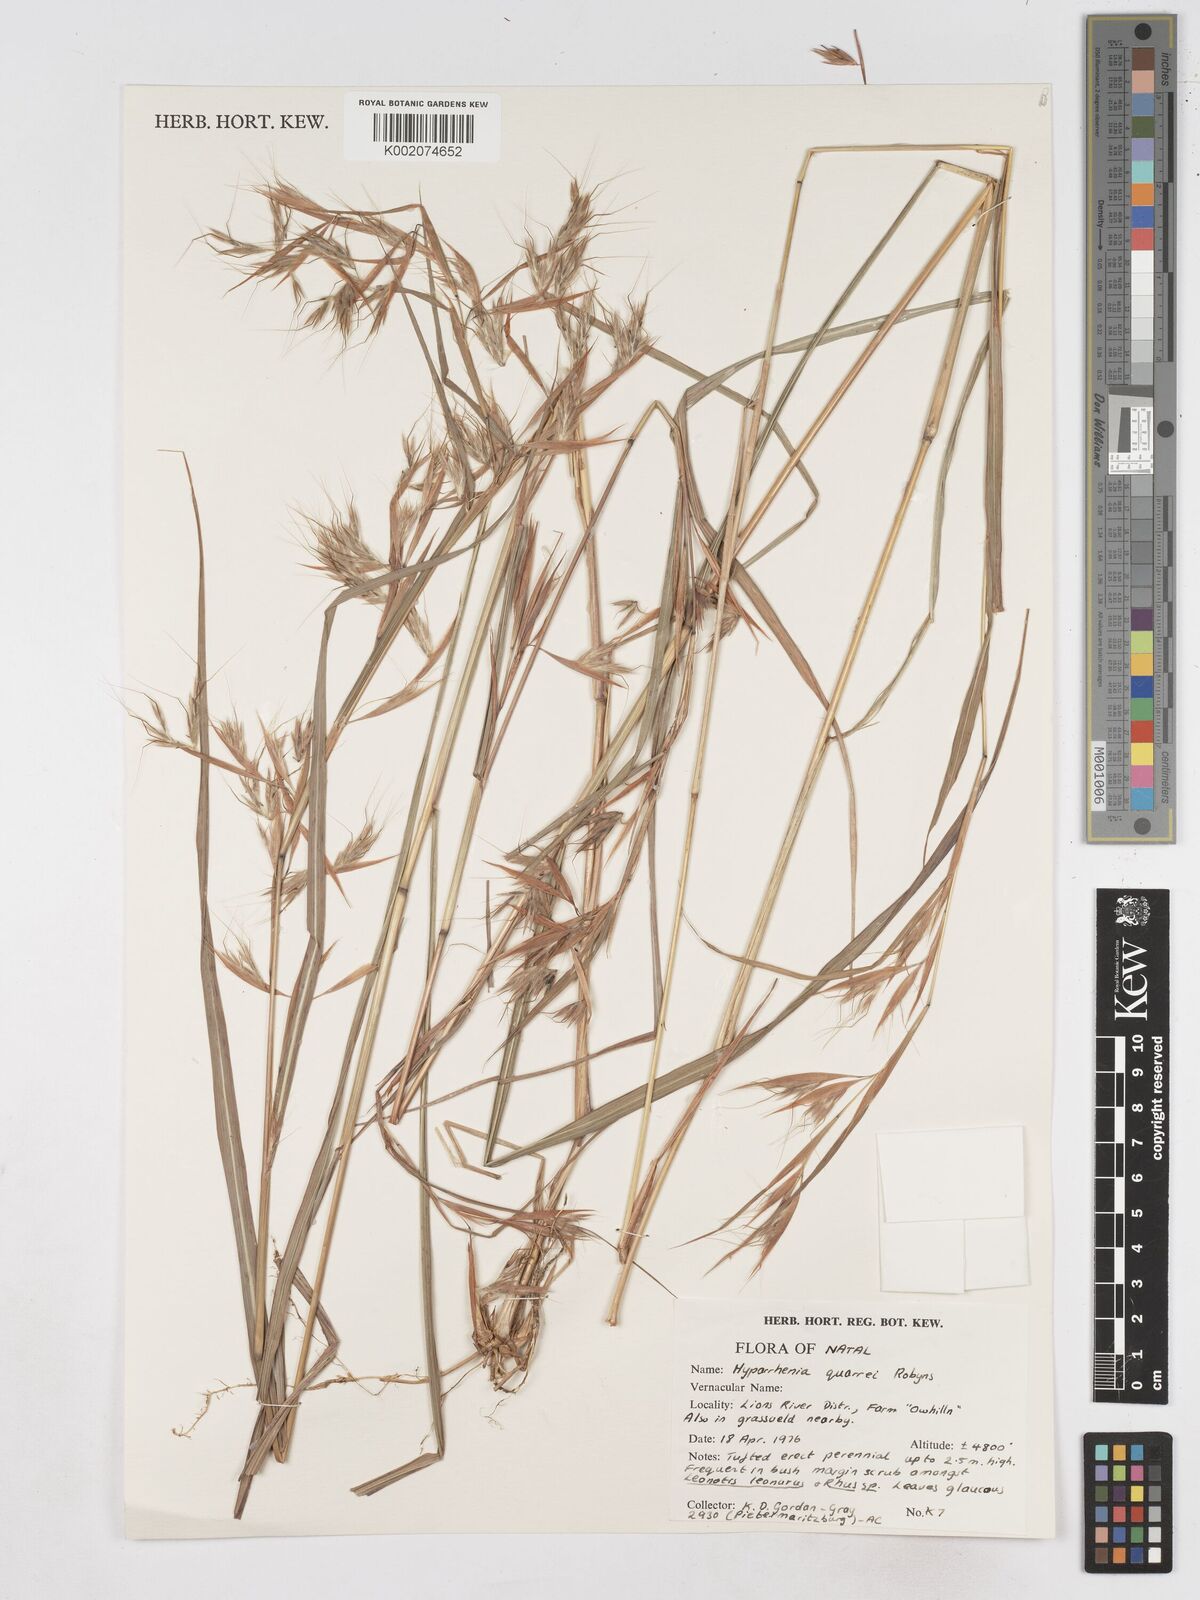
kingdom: Plantae
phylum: Tracheophyta
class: Liliopsida
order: Poales
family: Poaceae
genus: Hyparrhenia
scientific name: Hyparrhenia quarrei
